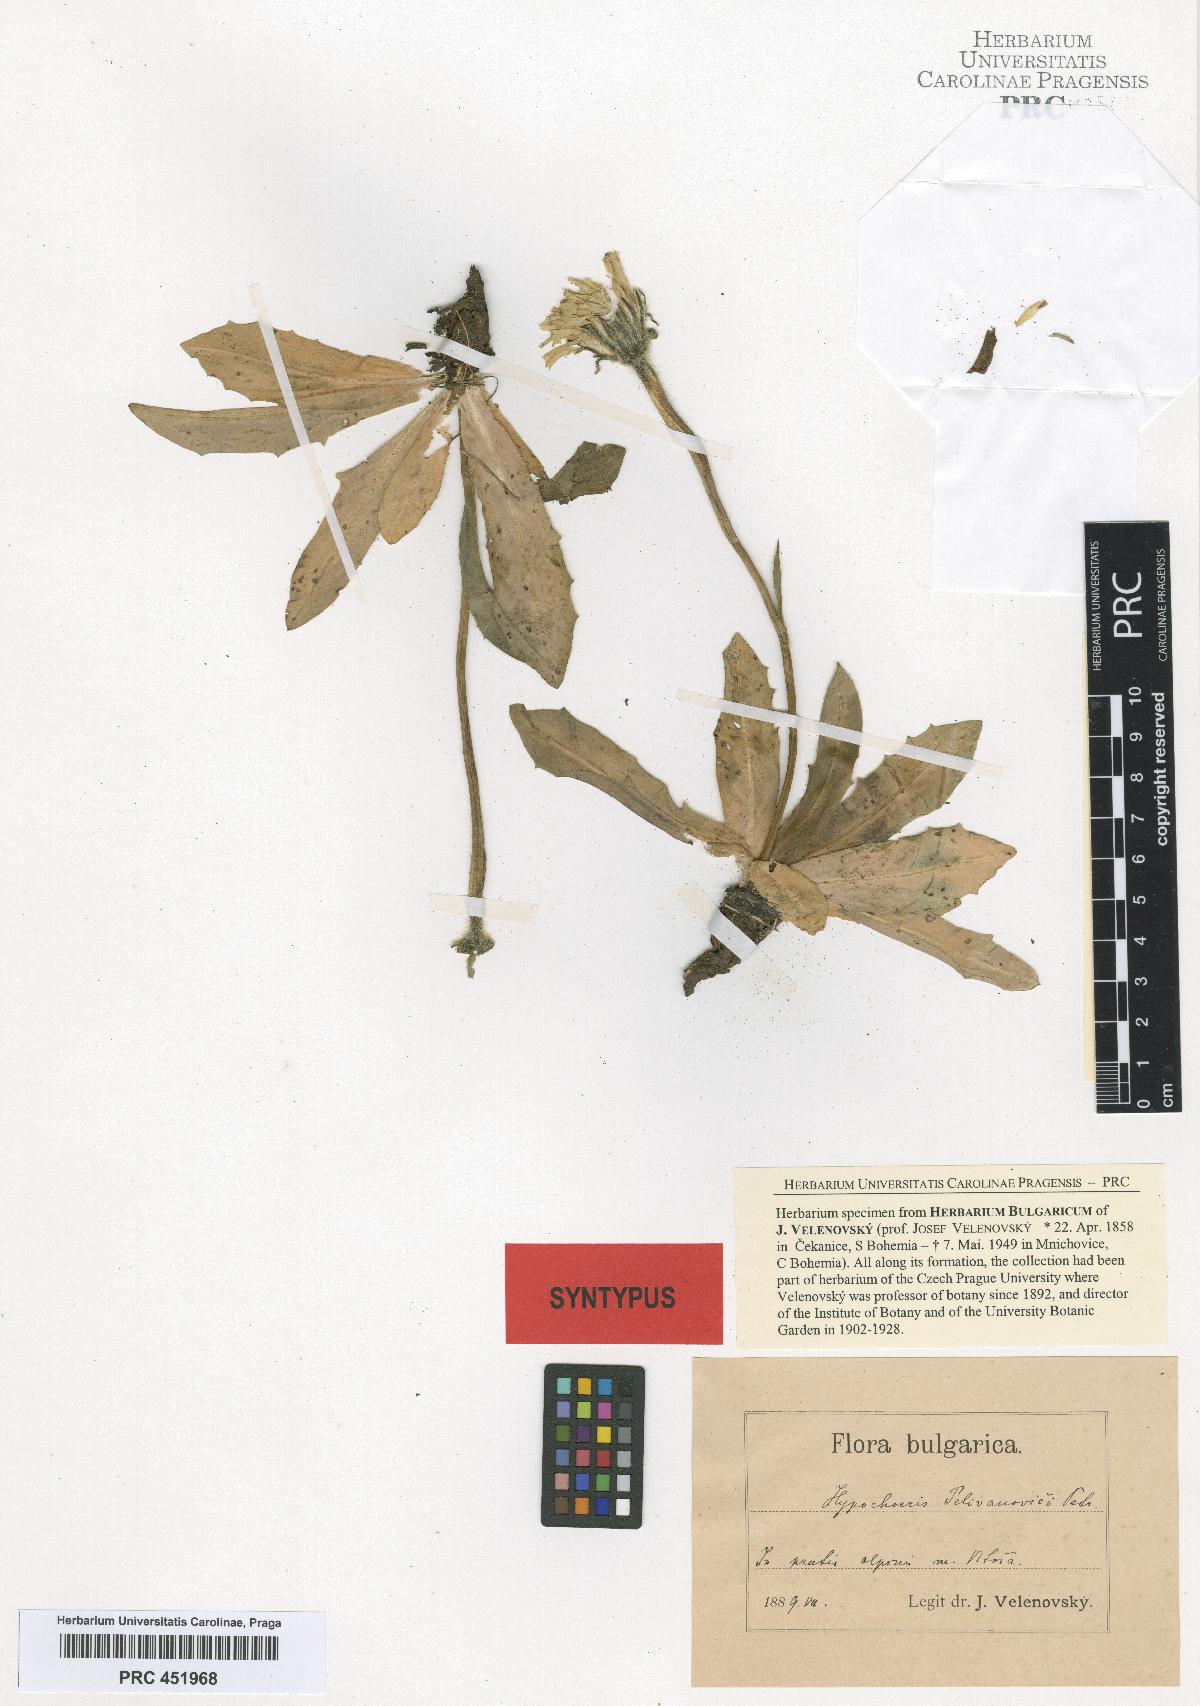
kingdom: Plantae
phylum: Tracheophyta
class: Magnoliopsida
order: Asterales
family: Asteraceae
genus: Trommsdorffia
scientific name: Trommsdorffia maculata
